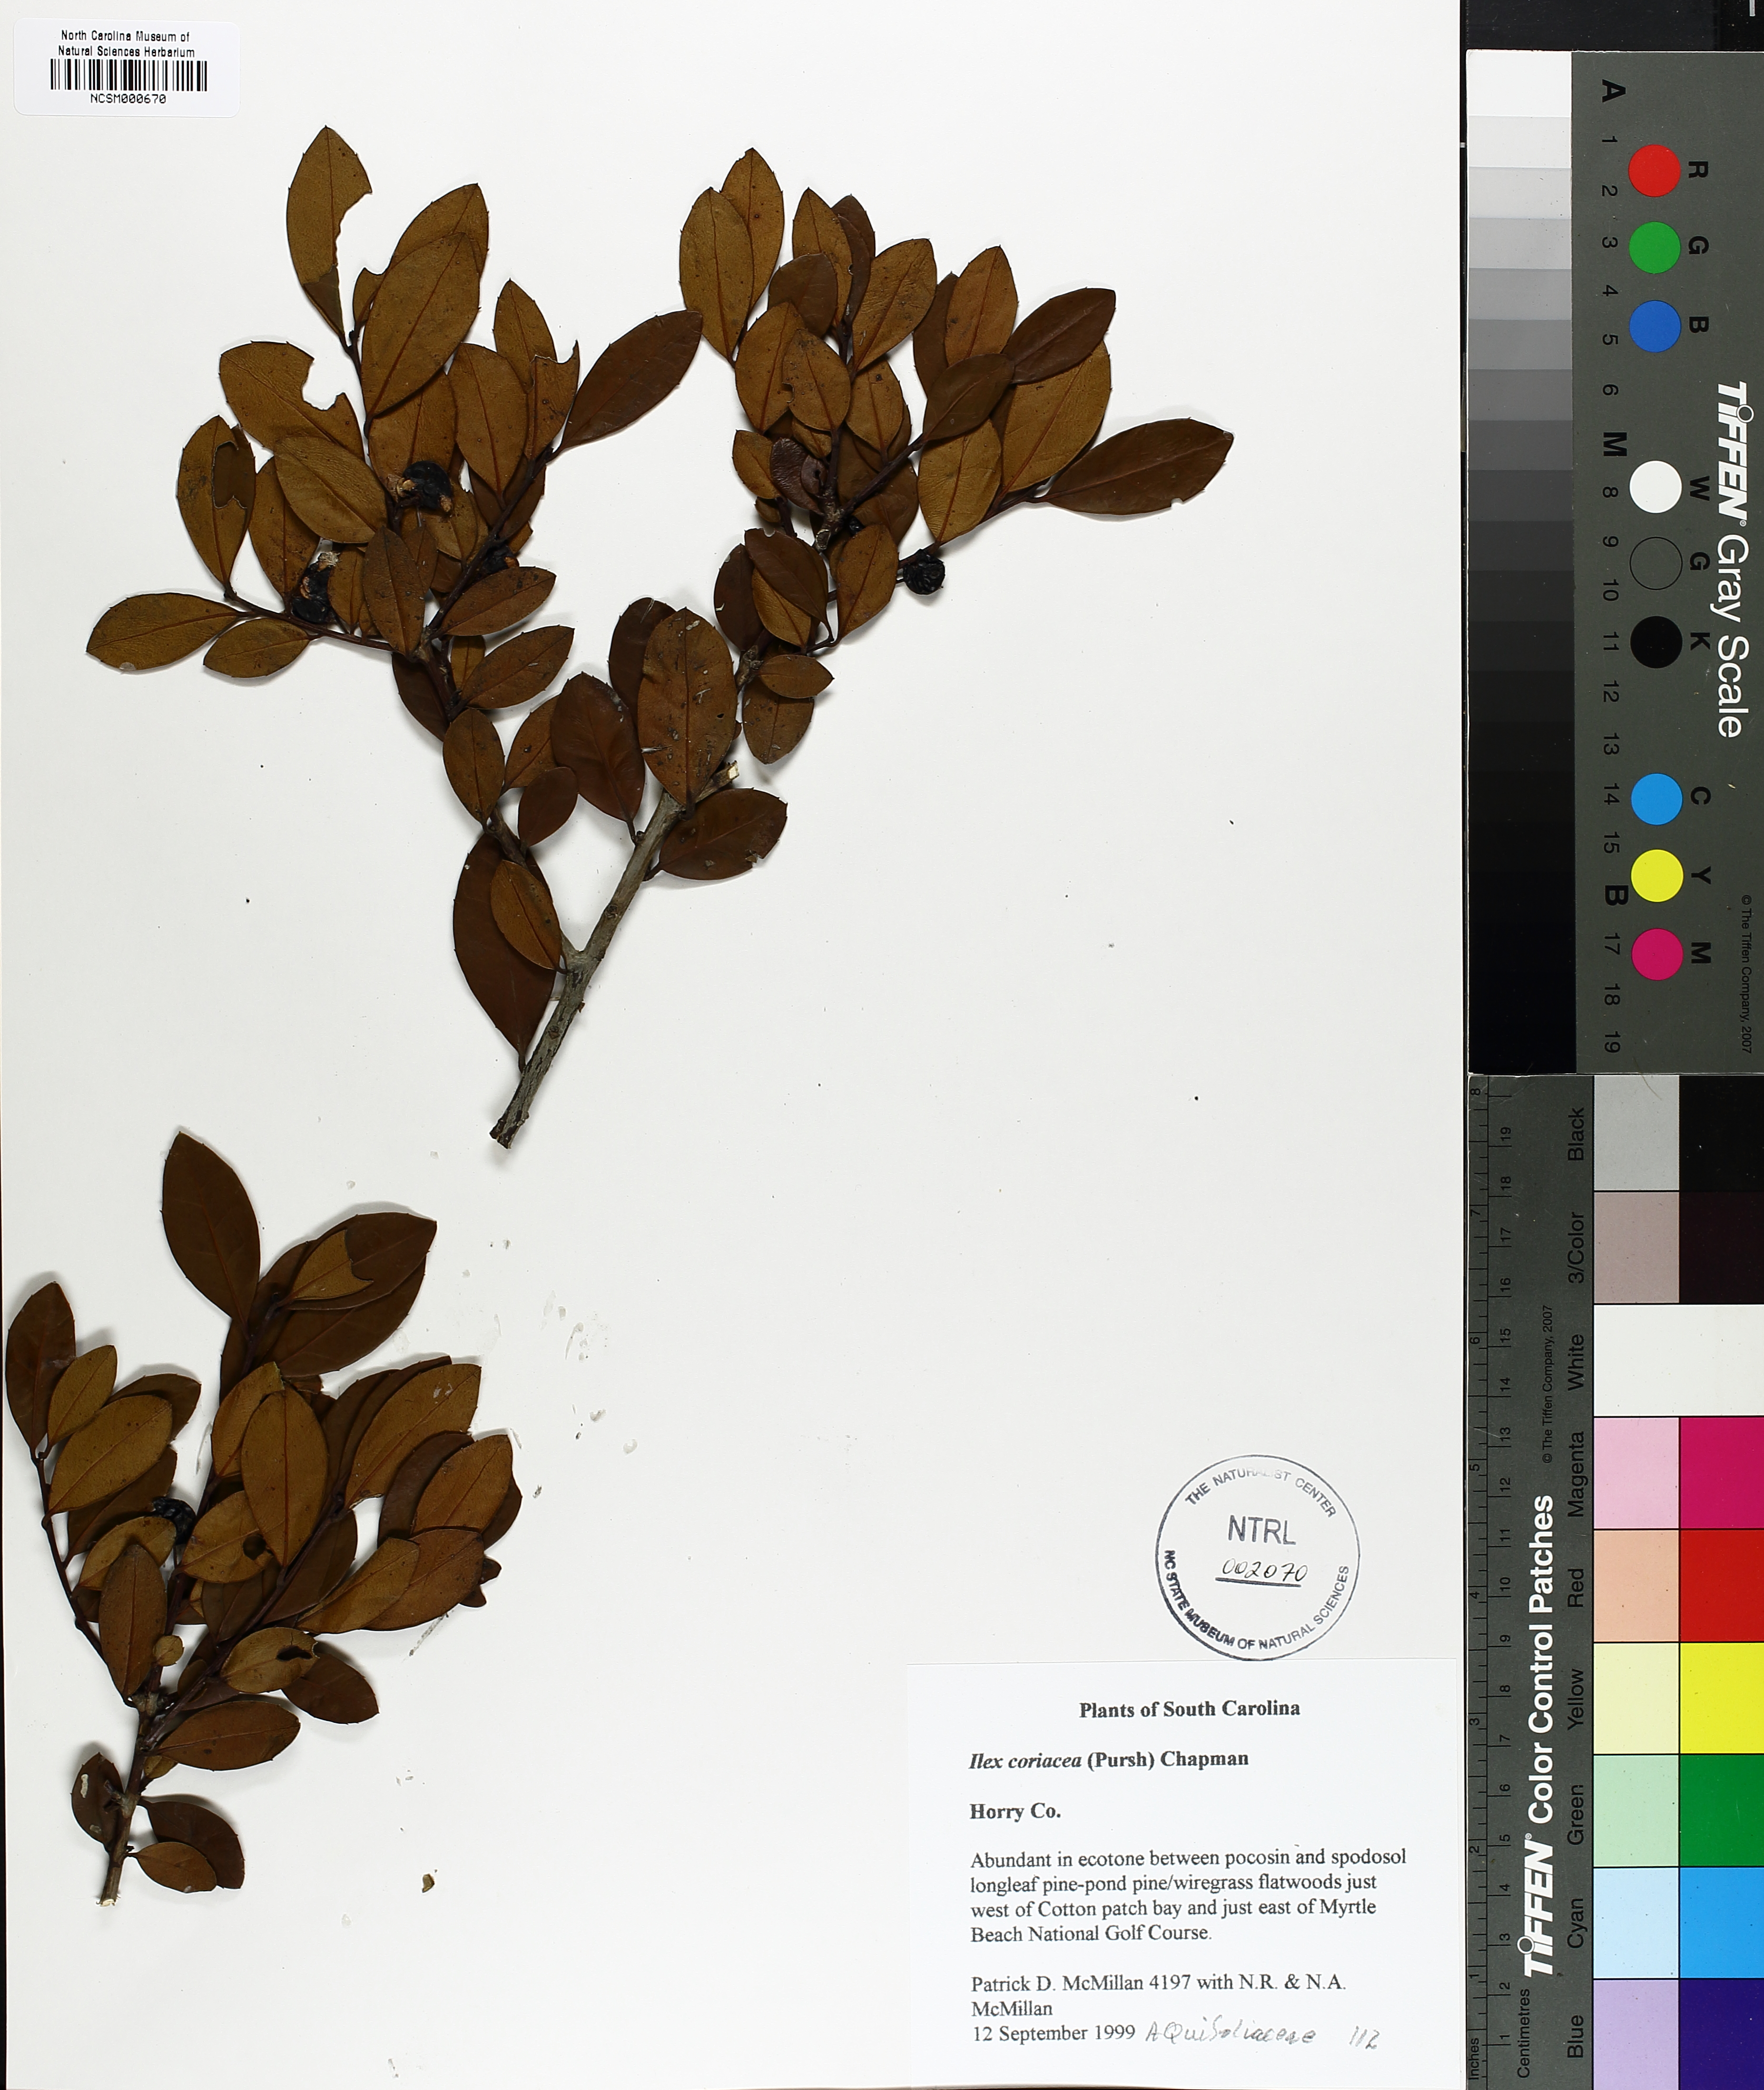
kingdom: Plantae
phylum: Tracheophyta
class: Magnoliopsida
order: Aquifoliales
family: Aquifoliaceae
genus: Ilex
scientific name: Ilex coriacea
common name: Sweet gallberry
